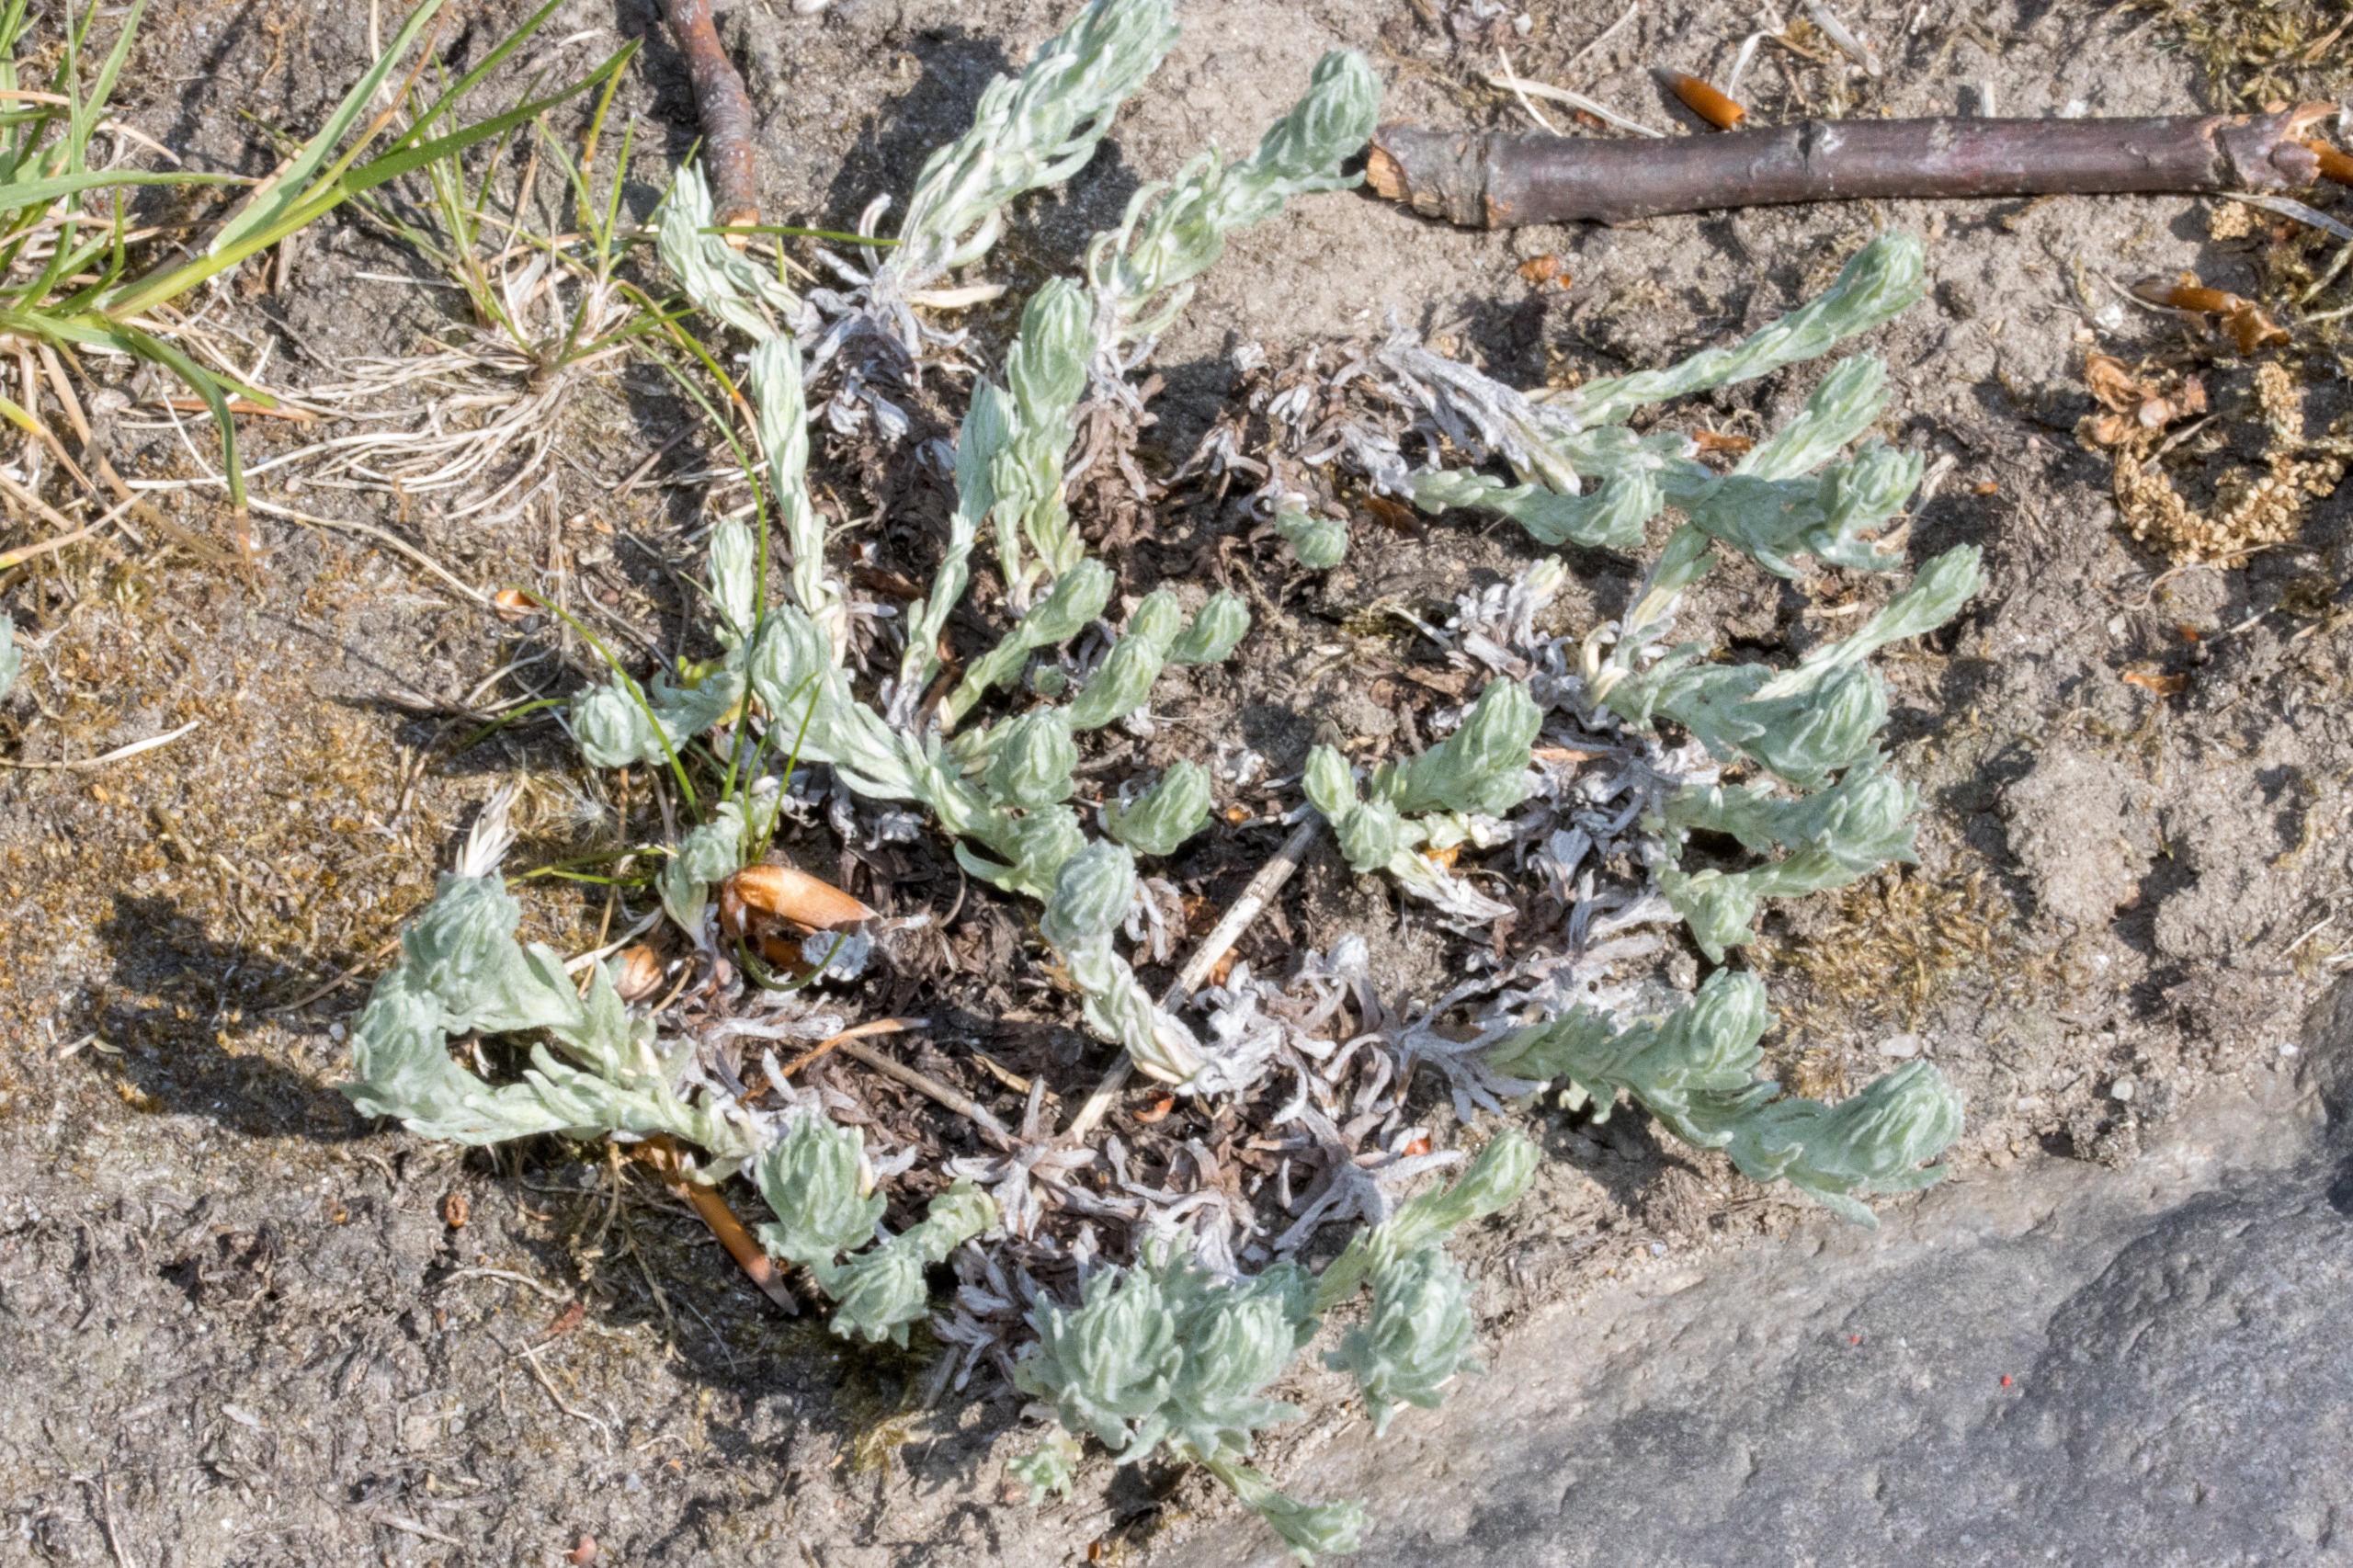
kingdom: Plantae
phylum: Tracheophyta
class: Magnoliopsida
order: Asterales
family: Asteraceae
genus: Filago
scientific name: Filago germanica
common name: Kugle-museurt
